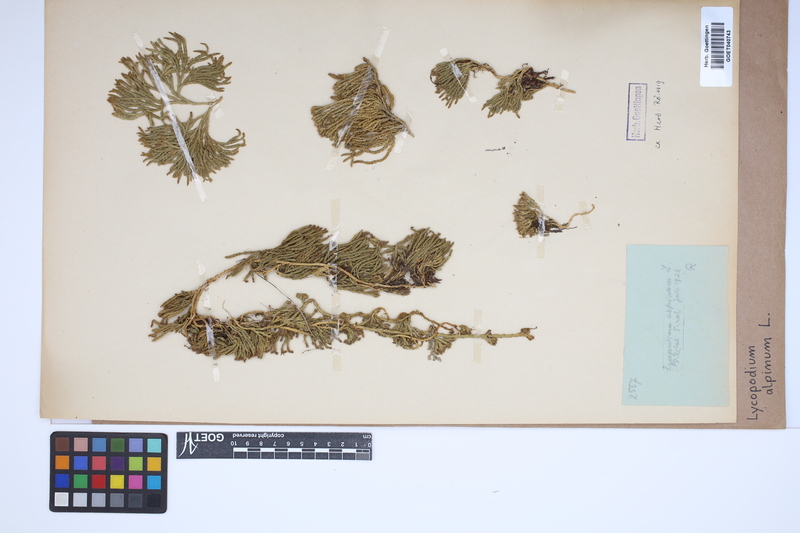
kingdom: Plantae
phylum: Tracheophyta
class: Lycopodiopsida
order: Lycopodiales
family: Lycopodiaceae
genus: Diphasiastrum
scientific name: Diphasiastrum alpinum
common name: Alpine clubmoss
